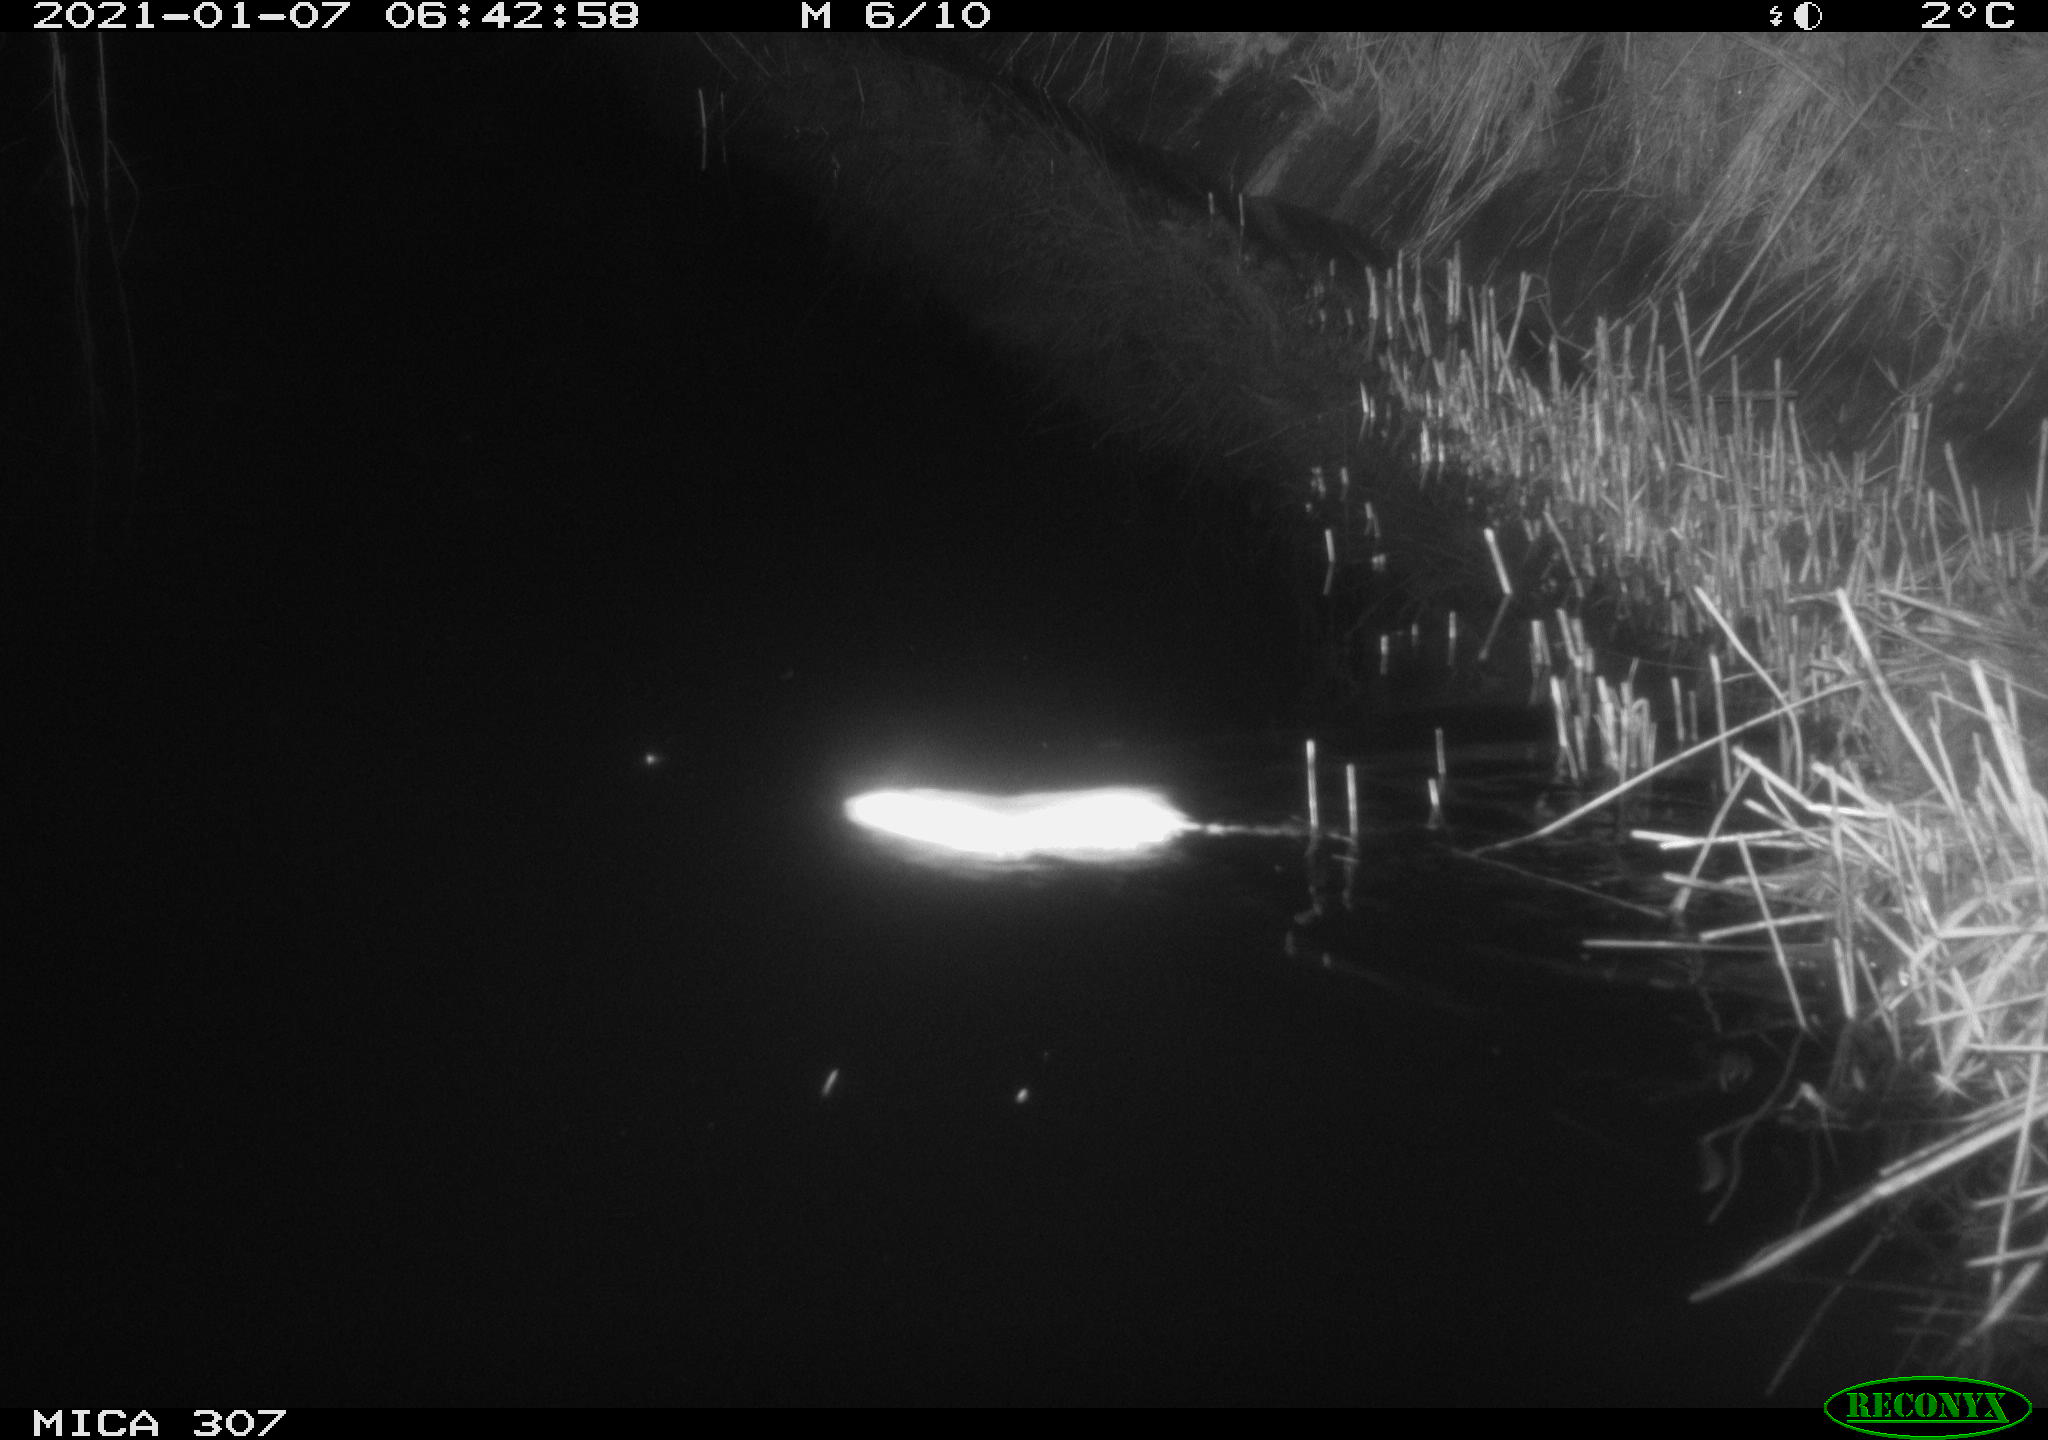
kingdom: Animalia
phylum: Chordata
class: Mammalia
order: Rodentia
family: Muridae
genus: Rattus
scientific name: Rattus norvegicus
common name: Brown rat
